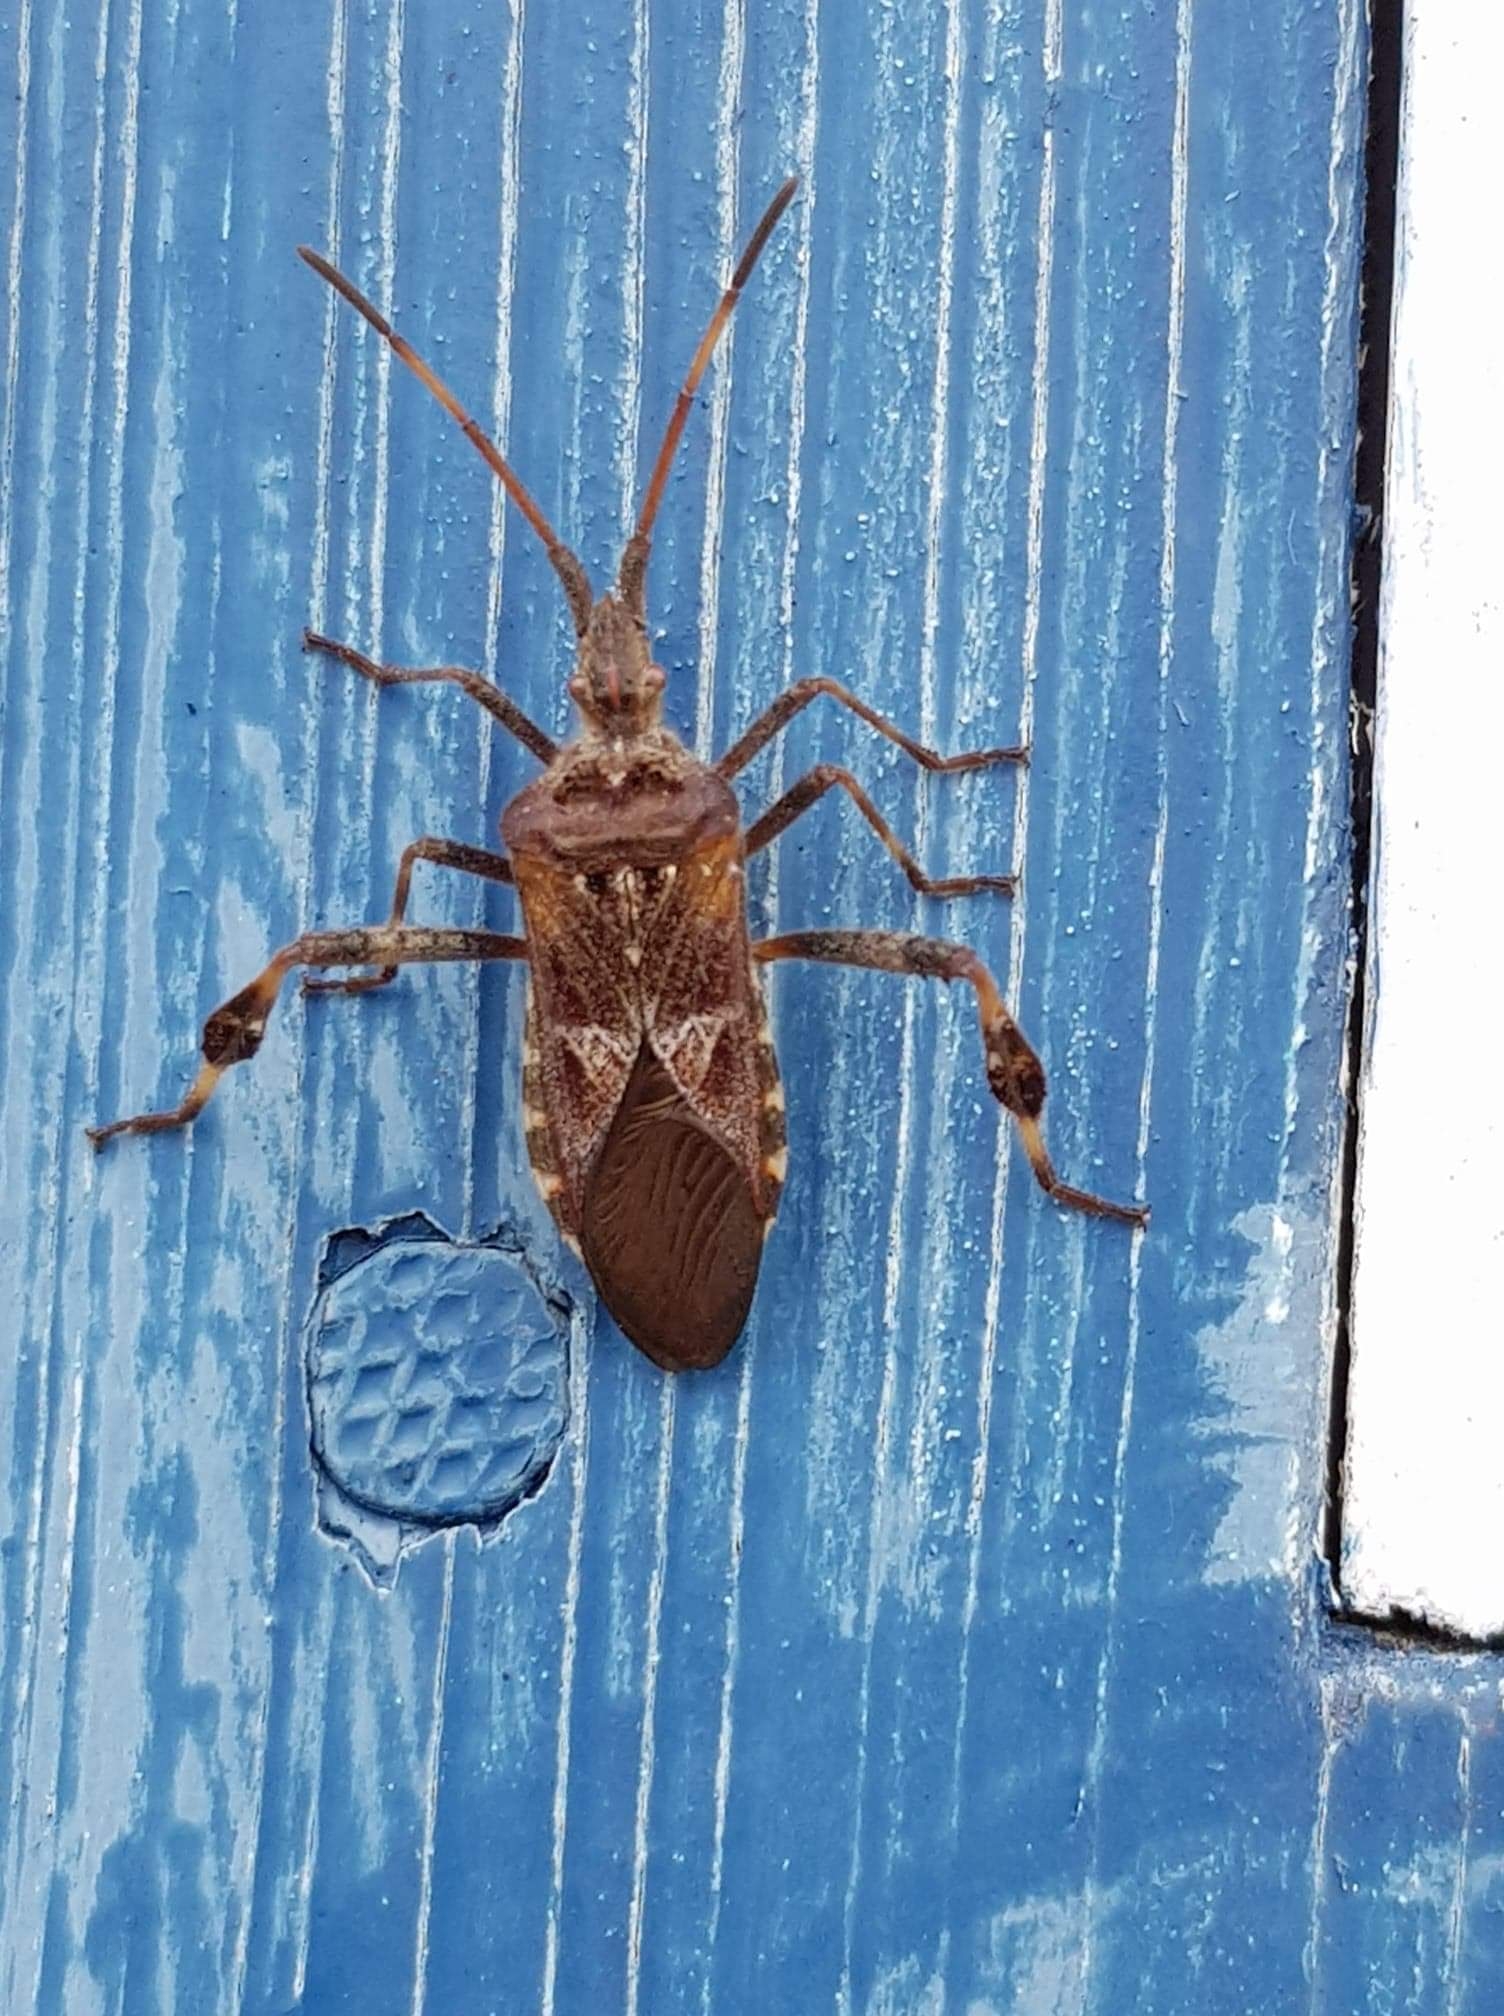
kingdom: Animalia
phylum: Arthropoda
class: Insecta
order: Hemiptera
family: Coreidae
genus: Leptoglossus
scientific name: Leptoglossus occidentalis
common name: Amerikansk fyrretæge
